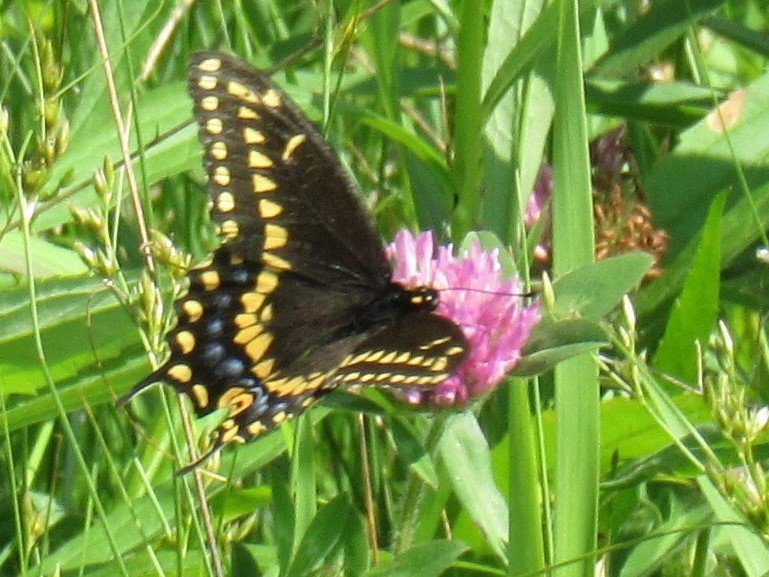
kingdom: Animalia
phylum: Arthropoda
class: Insecta
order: Lepidoptera
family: Papilionidae
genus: Papilio
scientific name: Papilio polyxenes
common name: Black Swallowtail
